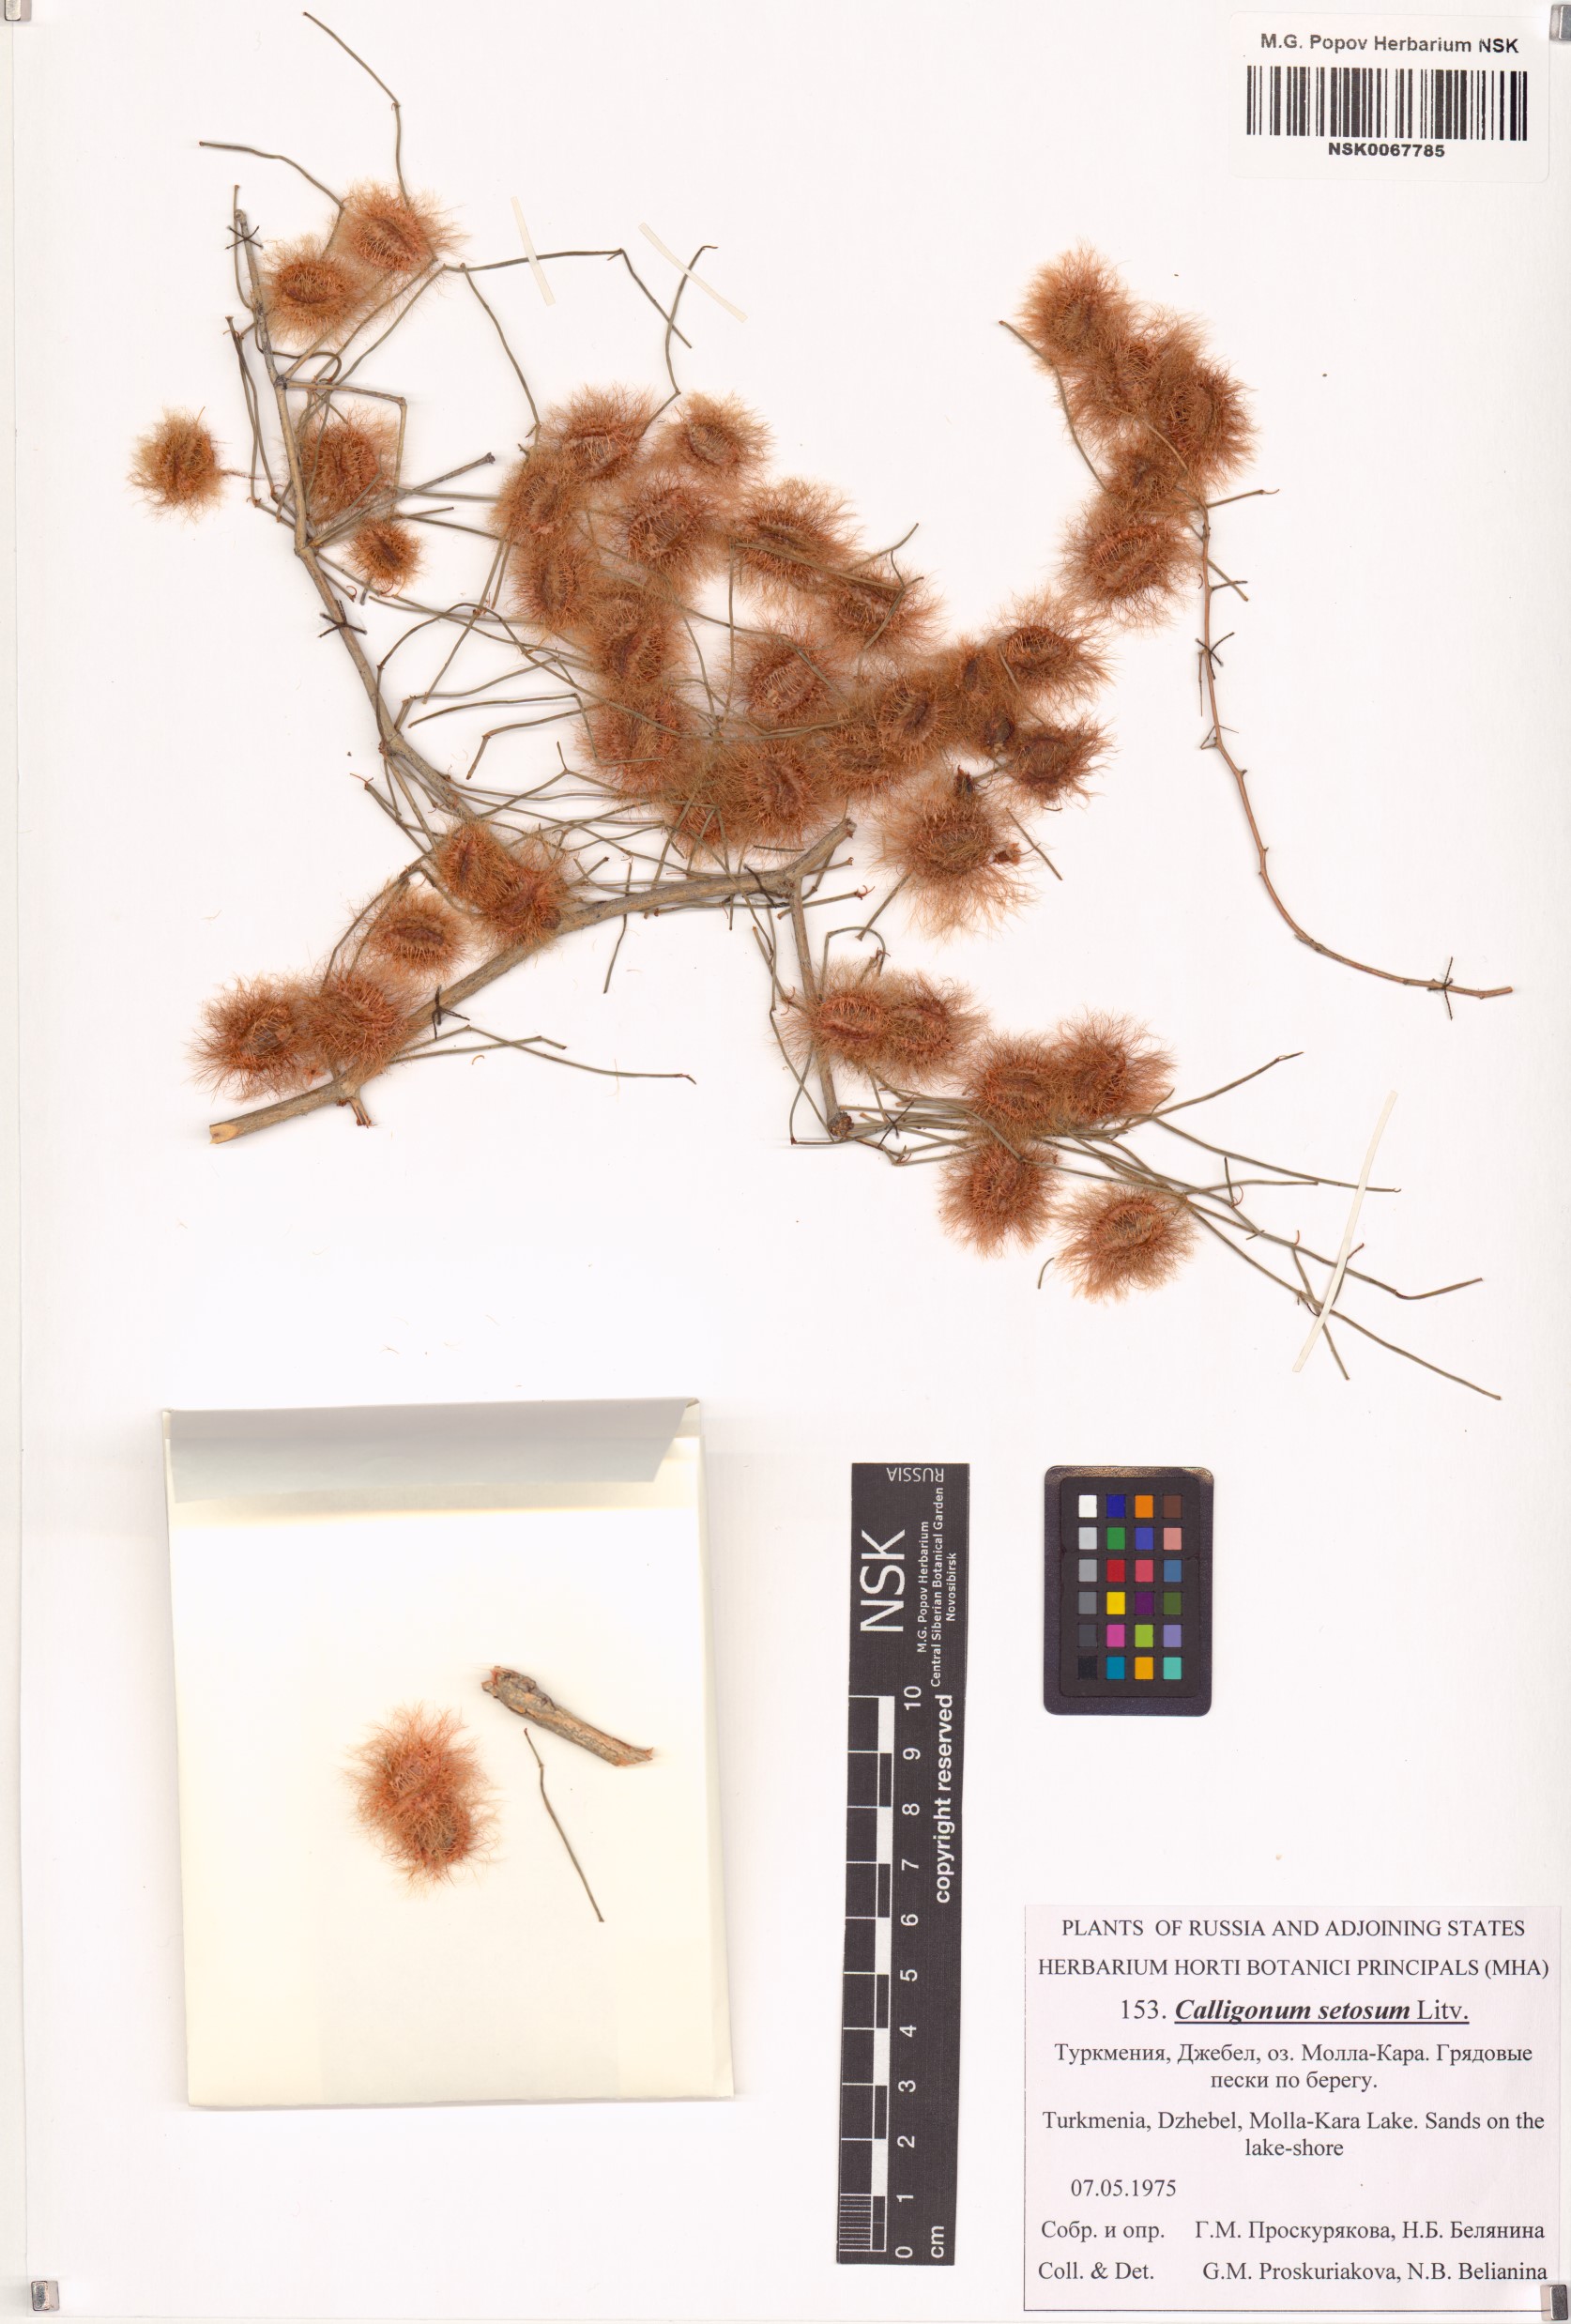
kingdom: Plantae
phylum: Tracheophyta
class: Magnoliopsida
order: Caryophyllales
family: Polygonaceae
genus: Calligonum
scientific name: Calligonum setosum
